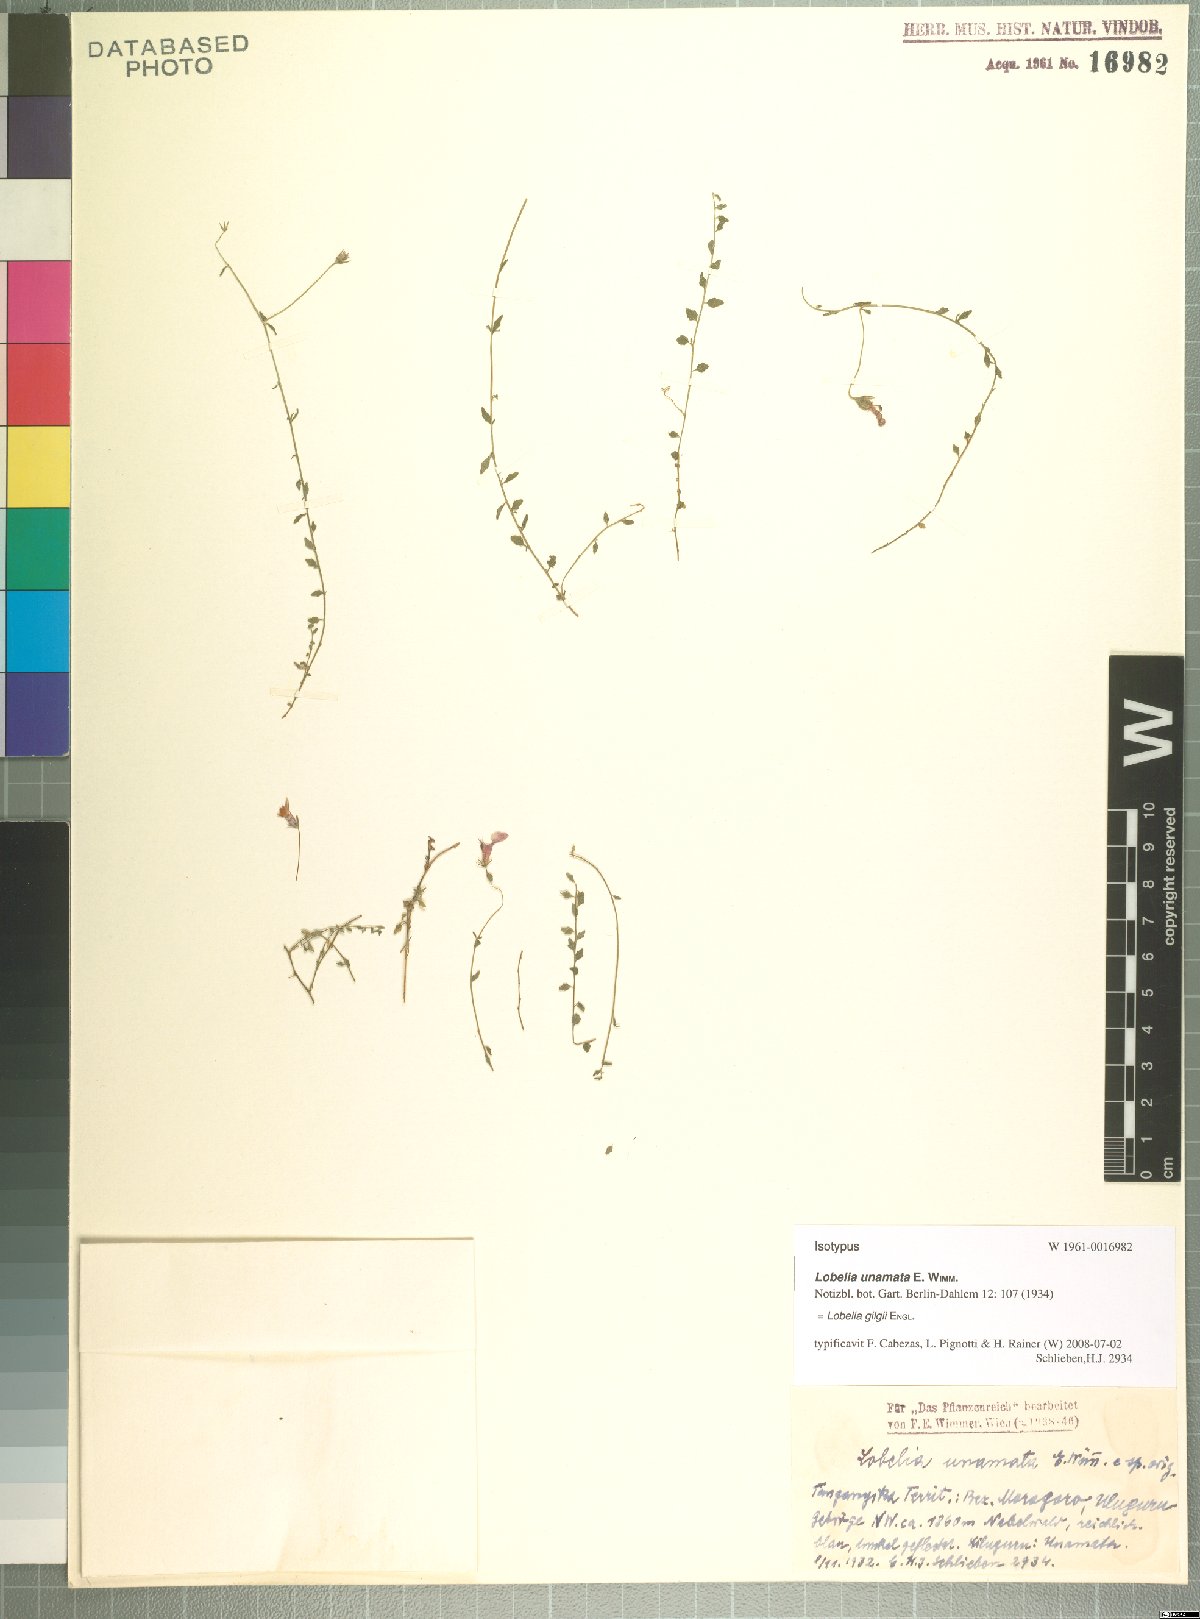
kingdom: Plantae
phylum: Tracheophyta
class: Magnoliopsida
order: Asterales
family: Campanulaceae
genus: Lobelia
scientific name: Lobelia gilgii
